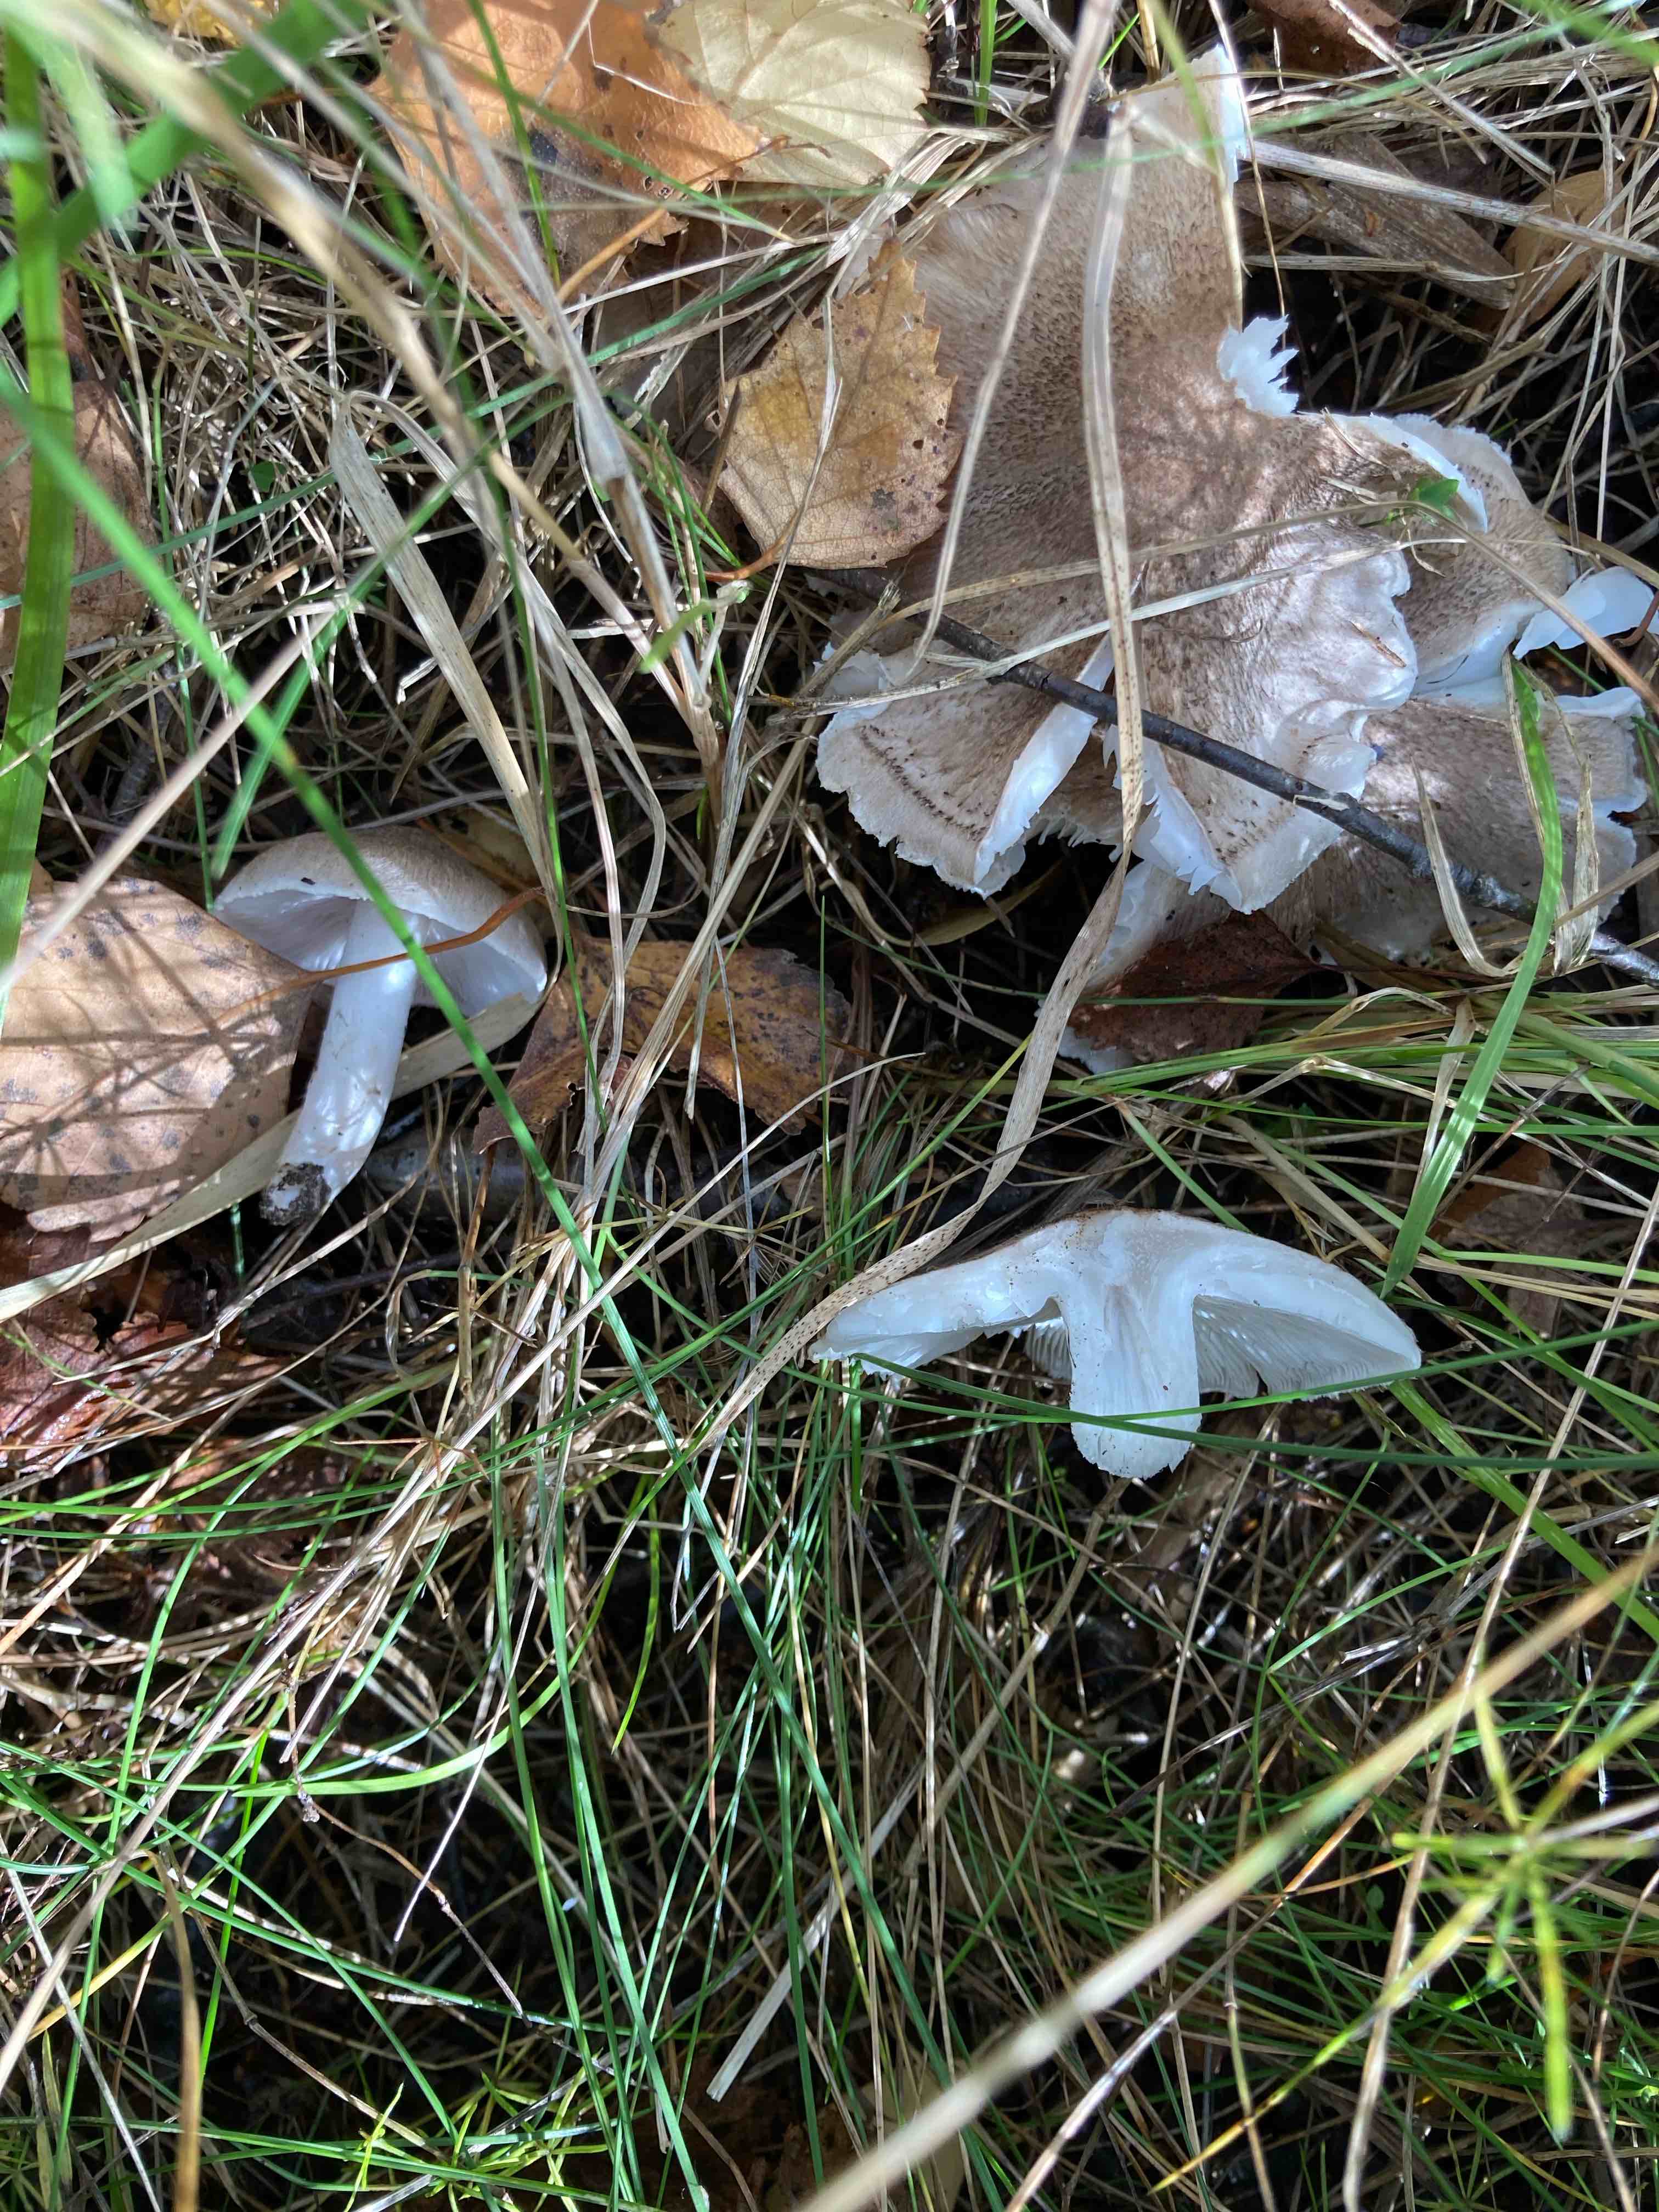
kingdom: Fungi
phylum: Basidiomycota
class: Agaricomycetes
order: Agaricales
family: Tricholomataceae
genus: Tricholoma
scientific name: Tricholoma
